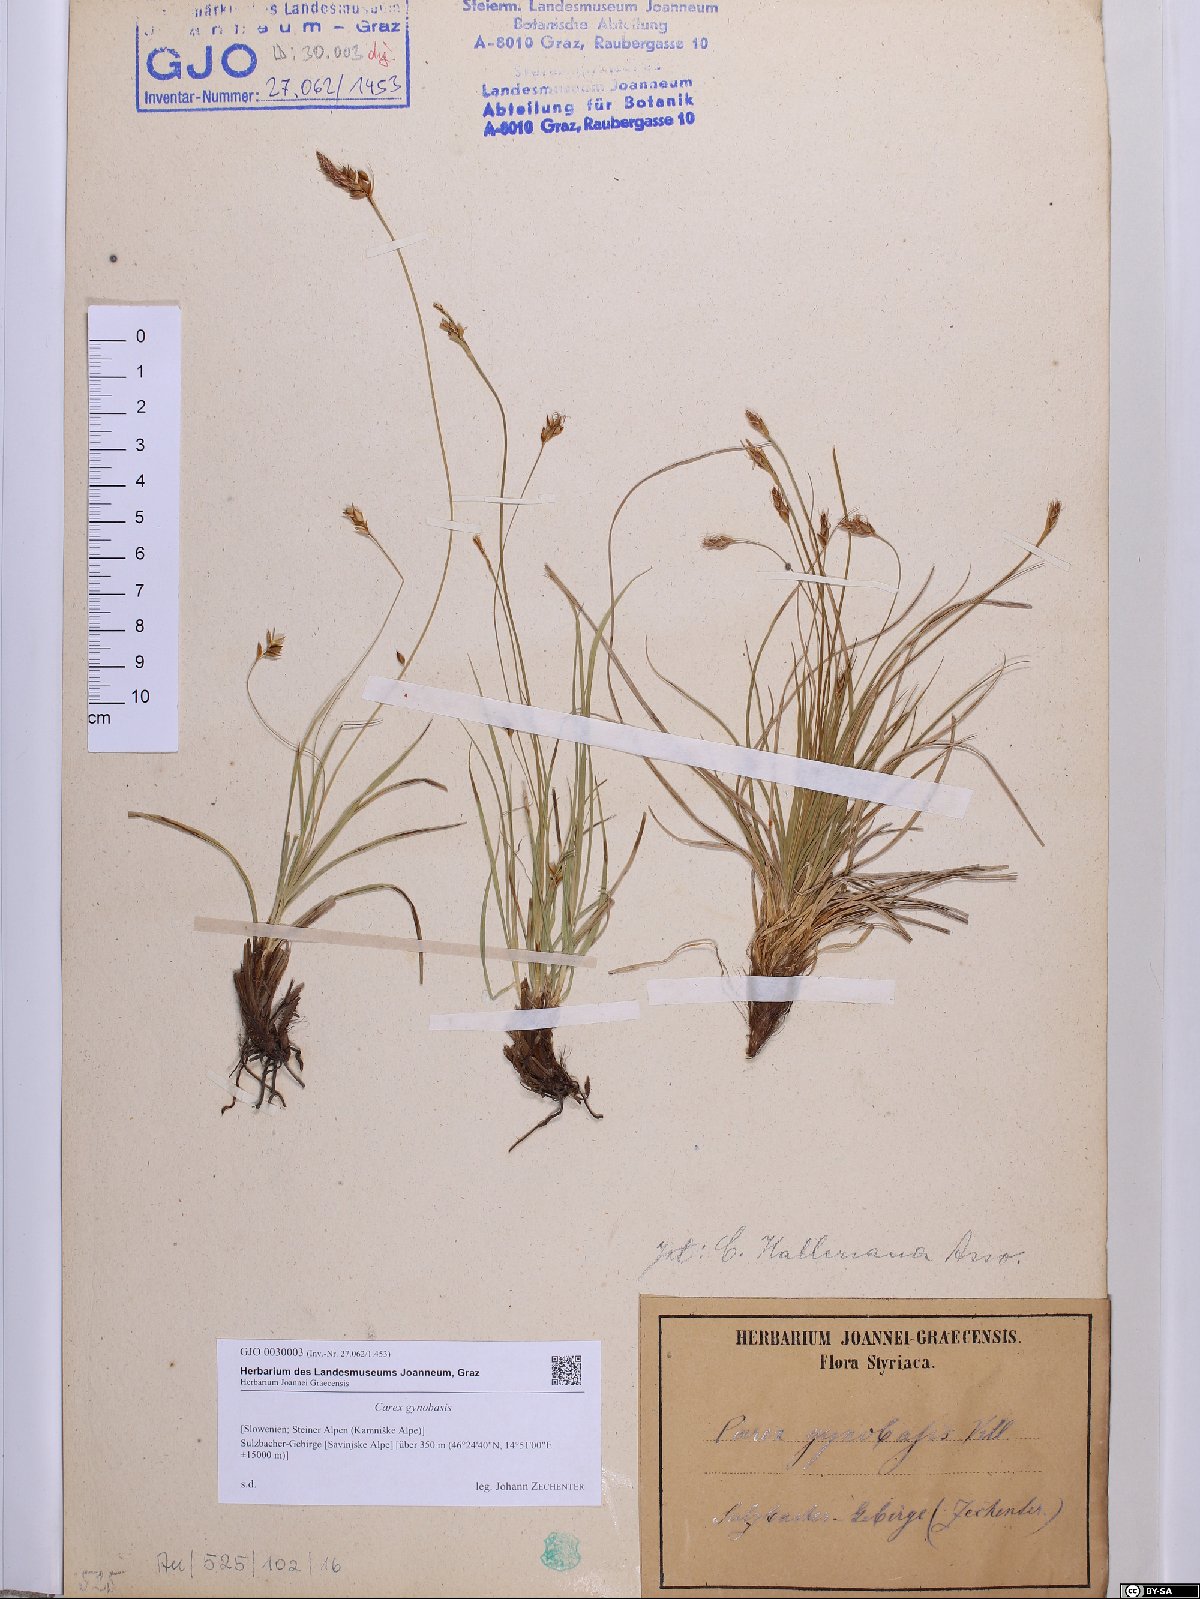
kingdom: Plantae
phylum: Tracheophyta
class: Liliopsida
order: Poales
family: Cyperaceae
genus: Carex
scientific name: Carex halleriana
